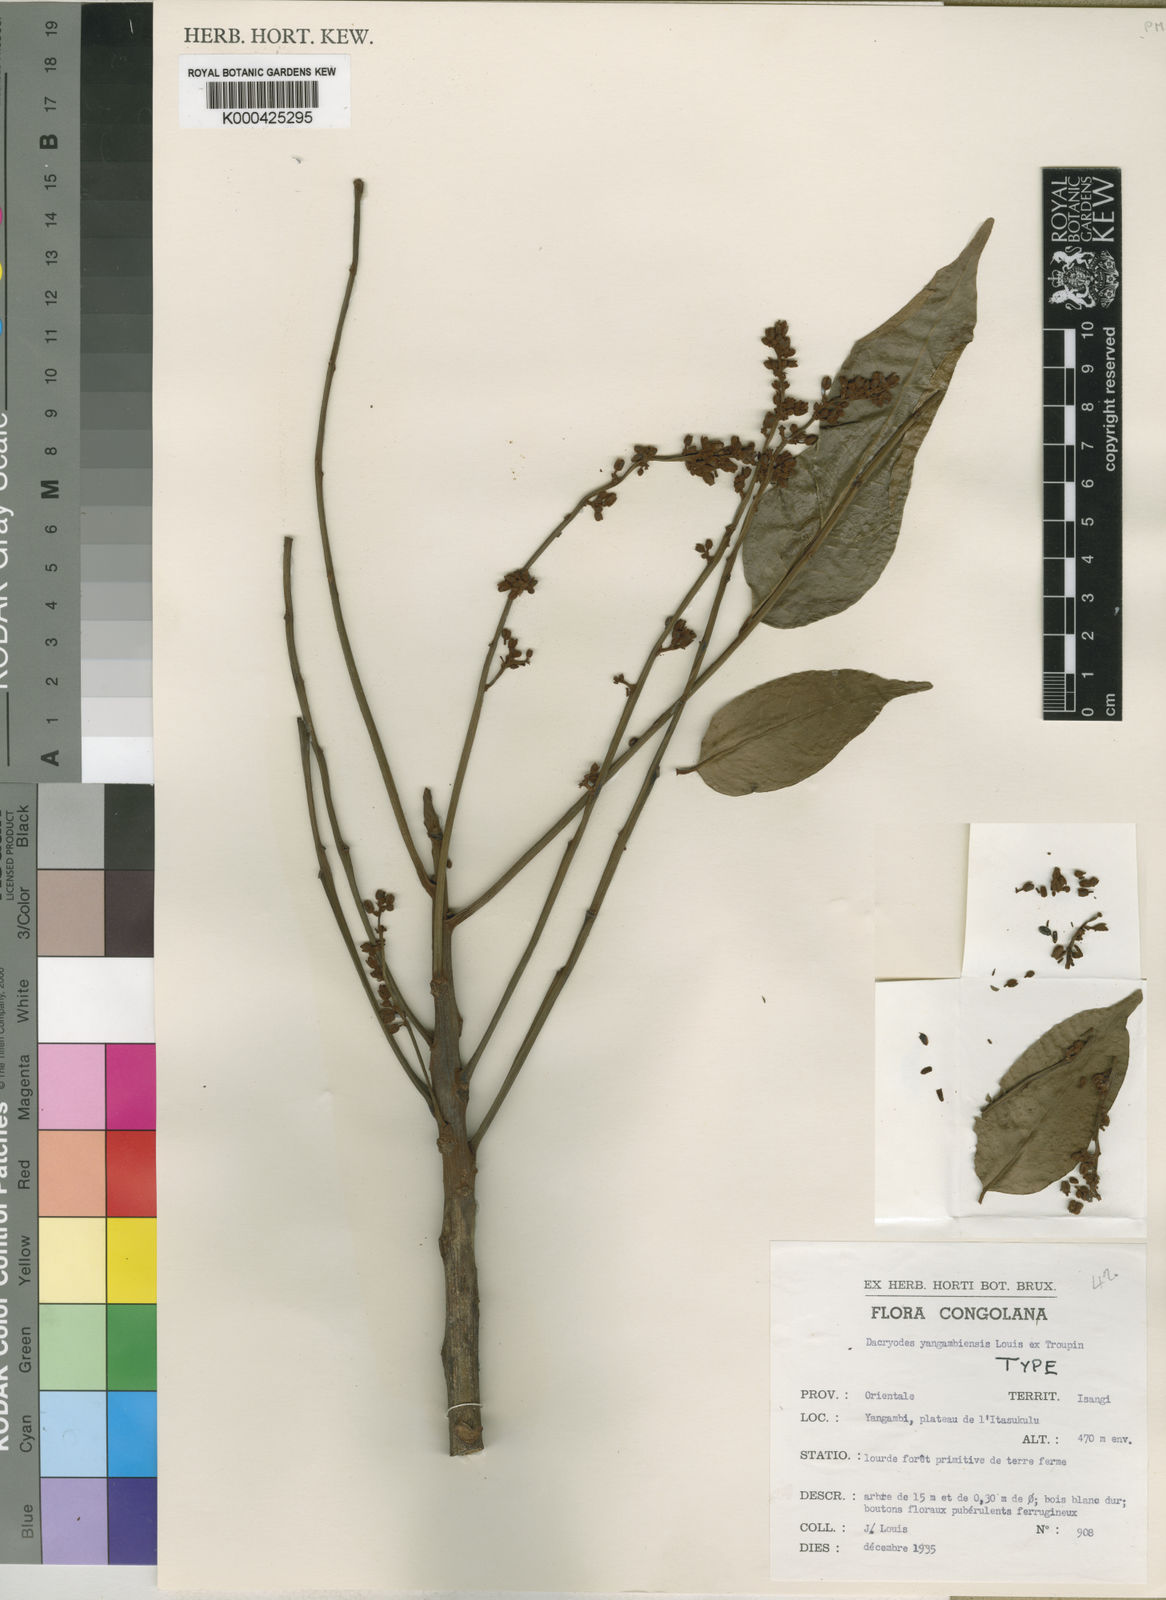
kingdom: Plantae
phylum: Tracheophyta
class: Magnoliopsida
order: Sapindales
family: Burseraceae
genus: Pachylobus
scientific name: Pachylobus osika
